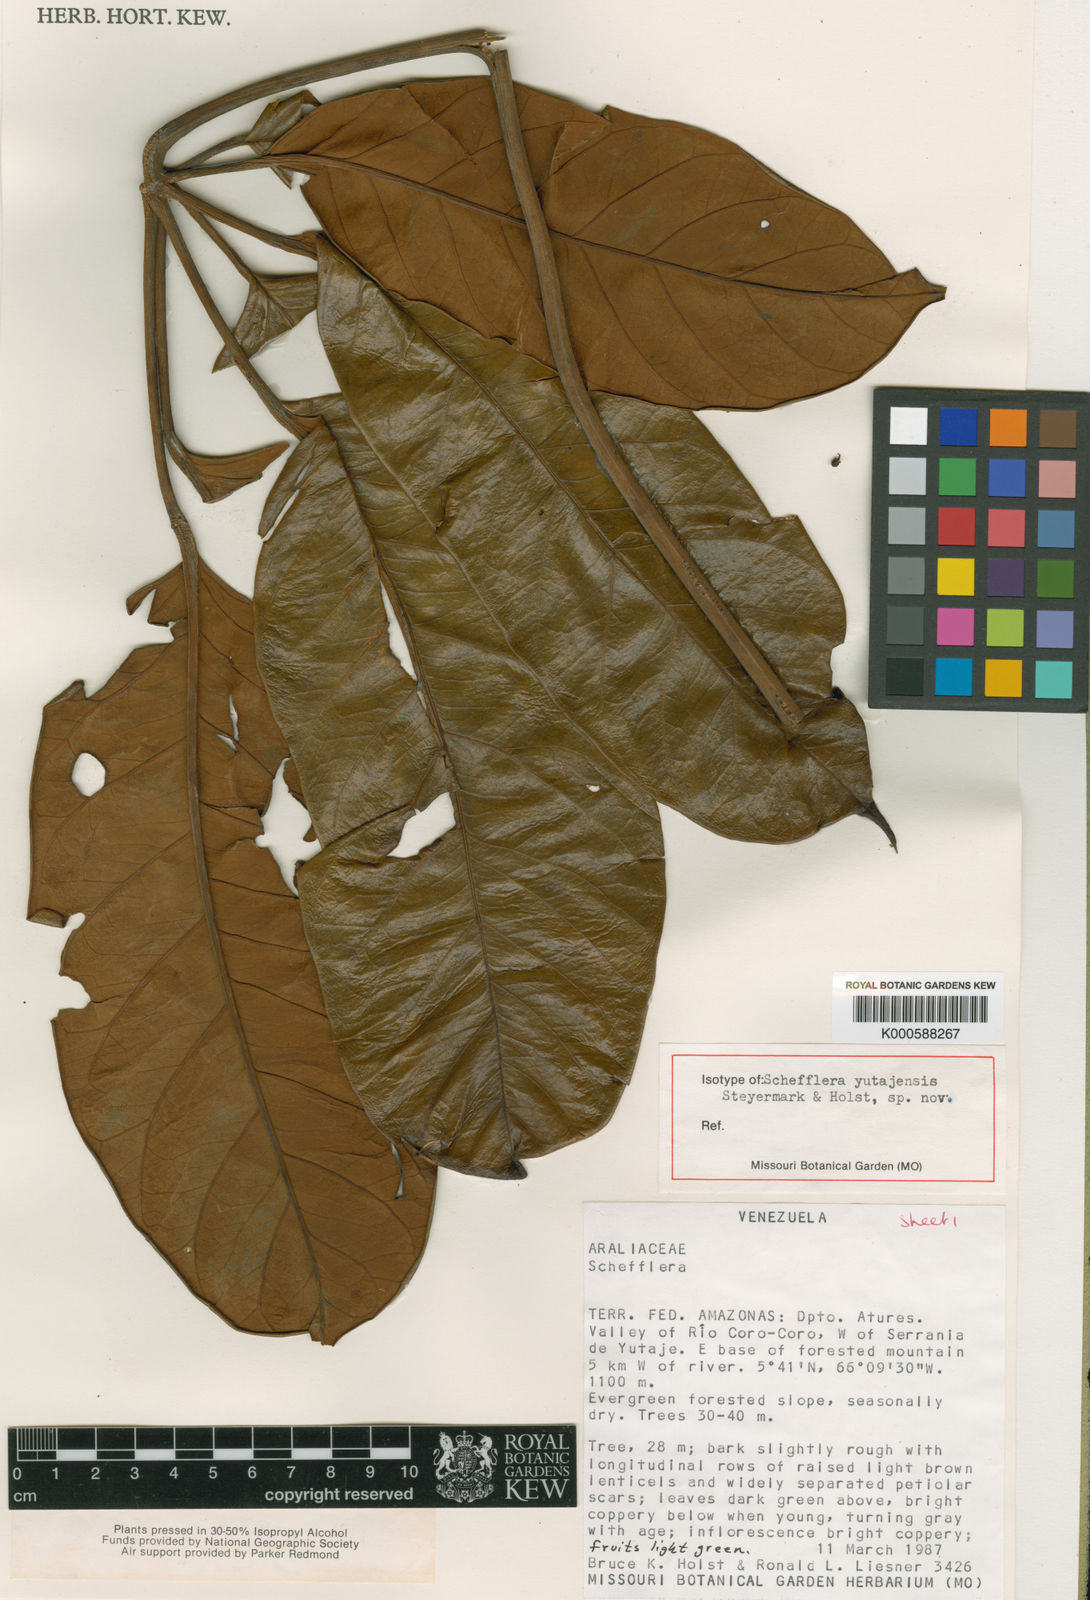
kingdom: Plantae
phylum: Tracheophyta
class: Magnoliopsida
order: Apiales
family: Araliaceae
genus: Didymopanax
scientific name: Didymopanax quinquecarinatus
